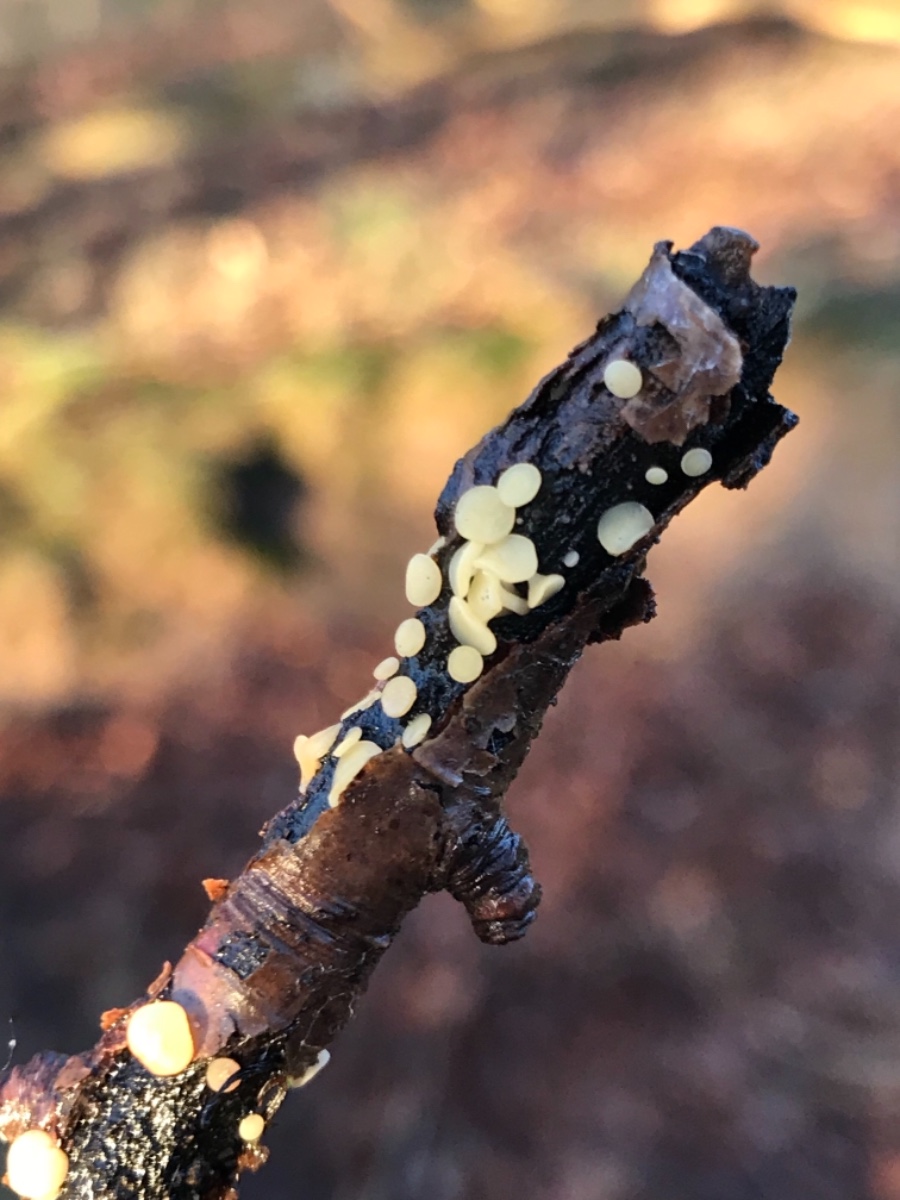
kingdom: Fungi
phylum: Ascomycota
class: Leotiomycetes
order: Helotiales
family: Helotiaceae
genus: Hymenoscyphus
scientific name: Hymenoscyphus serotinus
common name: krumsporet stilkskive
